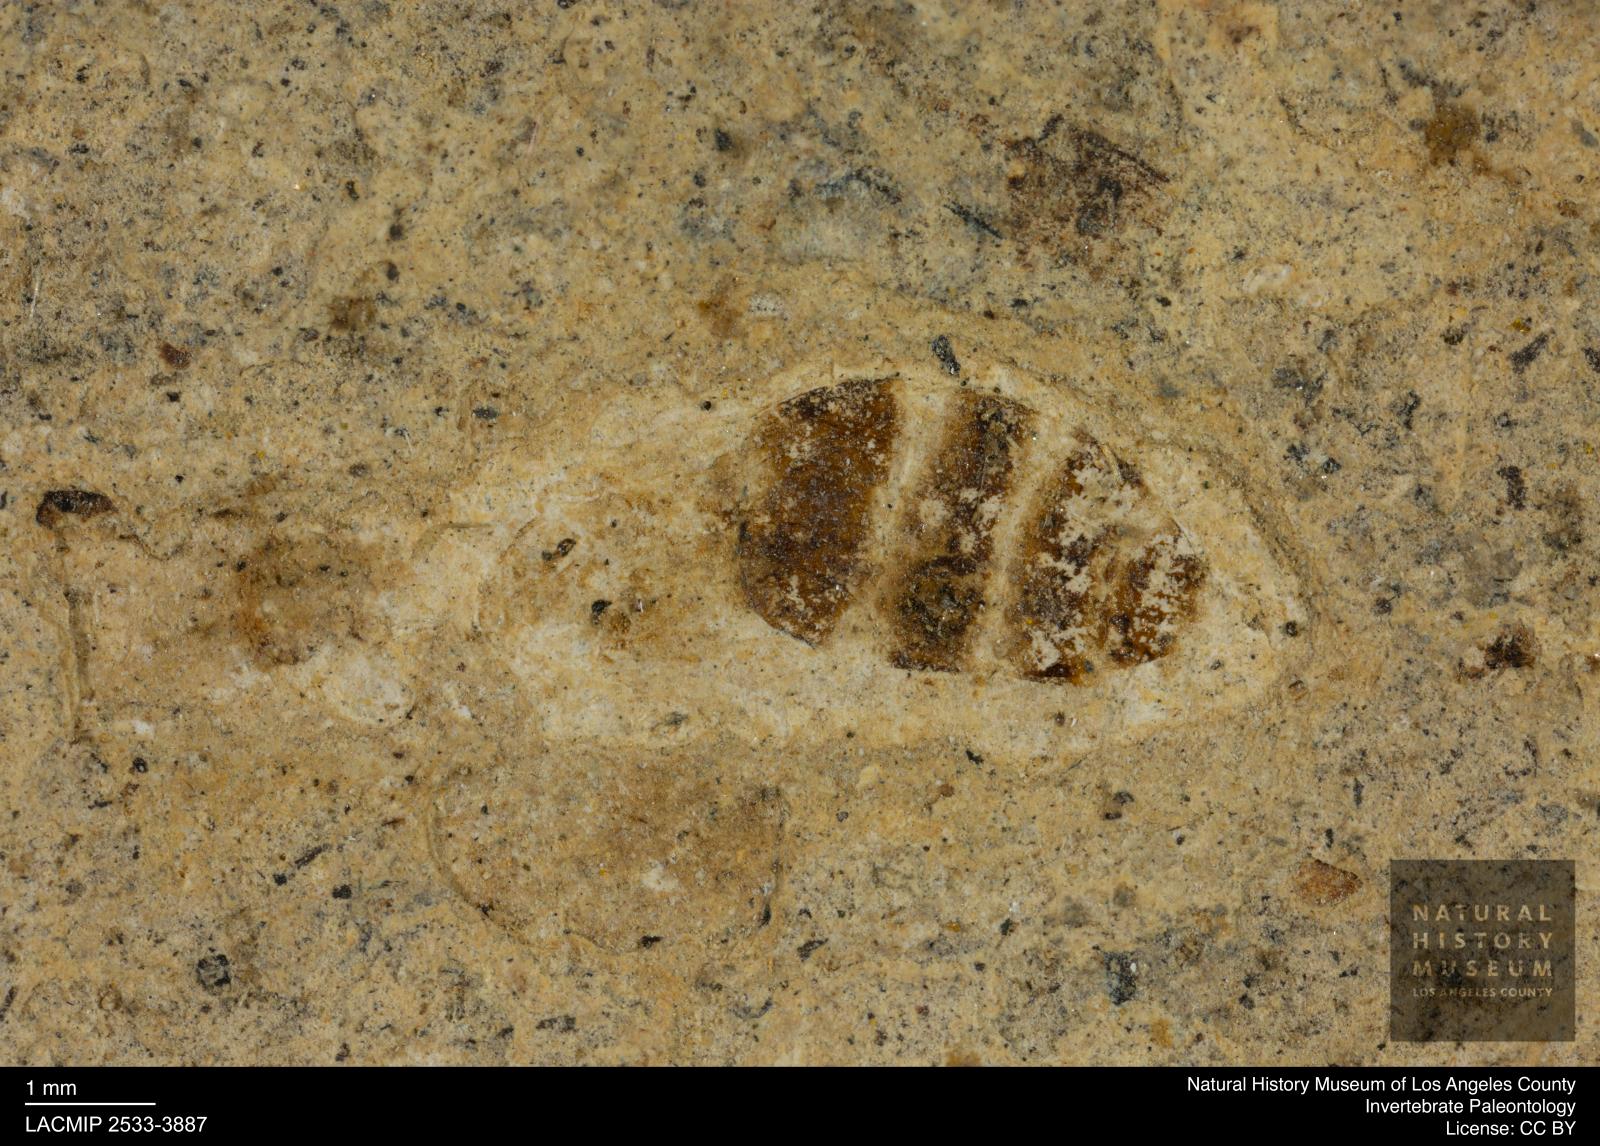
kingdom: Animalia
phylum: Arthropoda
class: Insecta
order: Hymenoptera
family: Formicidae
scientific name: Formicidae
